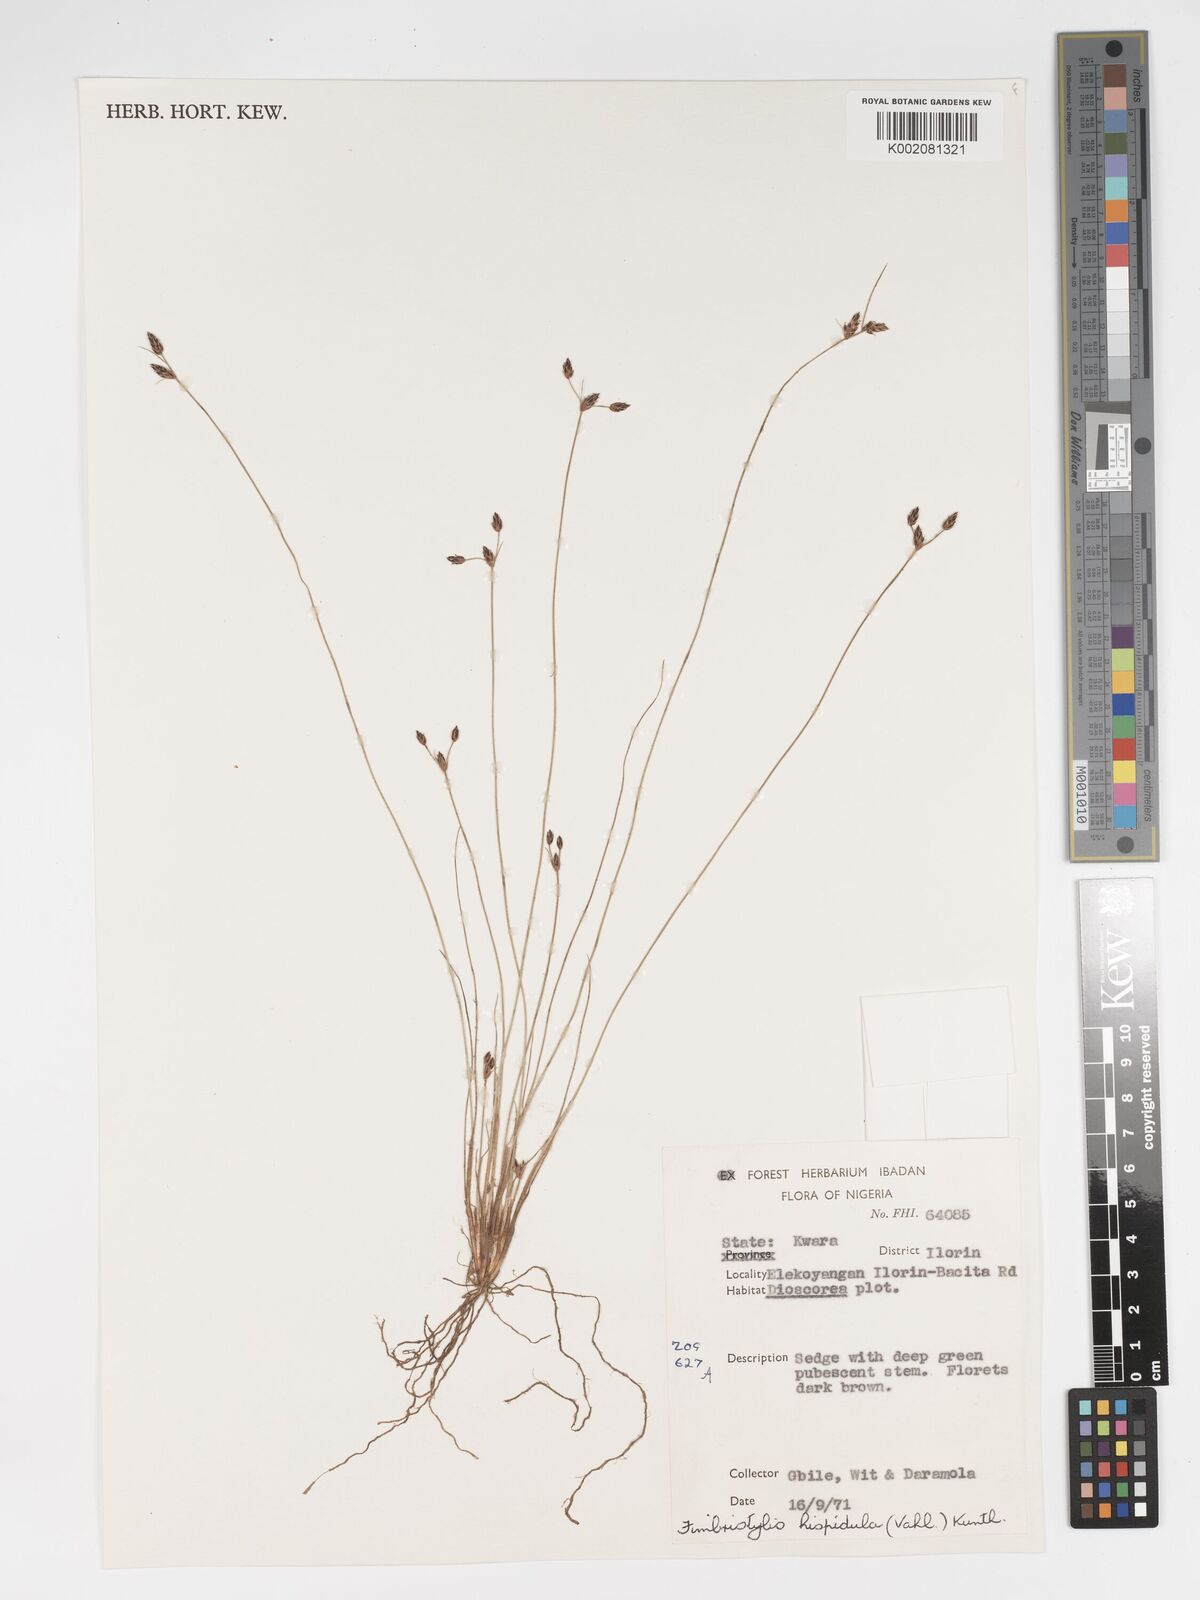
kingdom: Plantae
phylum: Tracheophyta
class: Liliopsida
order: Poales
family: Cyperaceae
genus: Bulbostylis
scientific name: Bulbostylis hispidula
